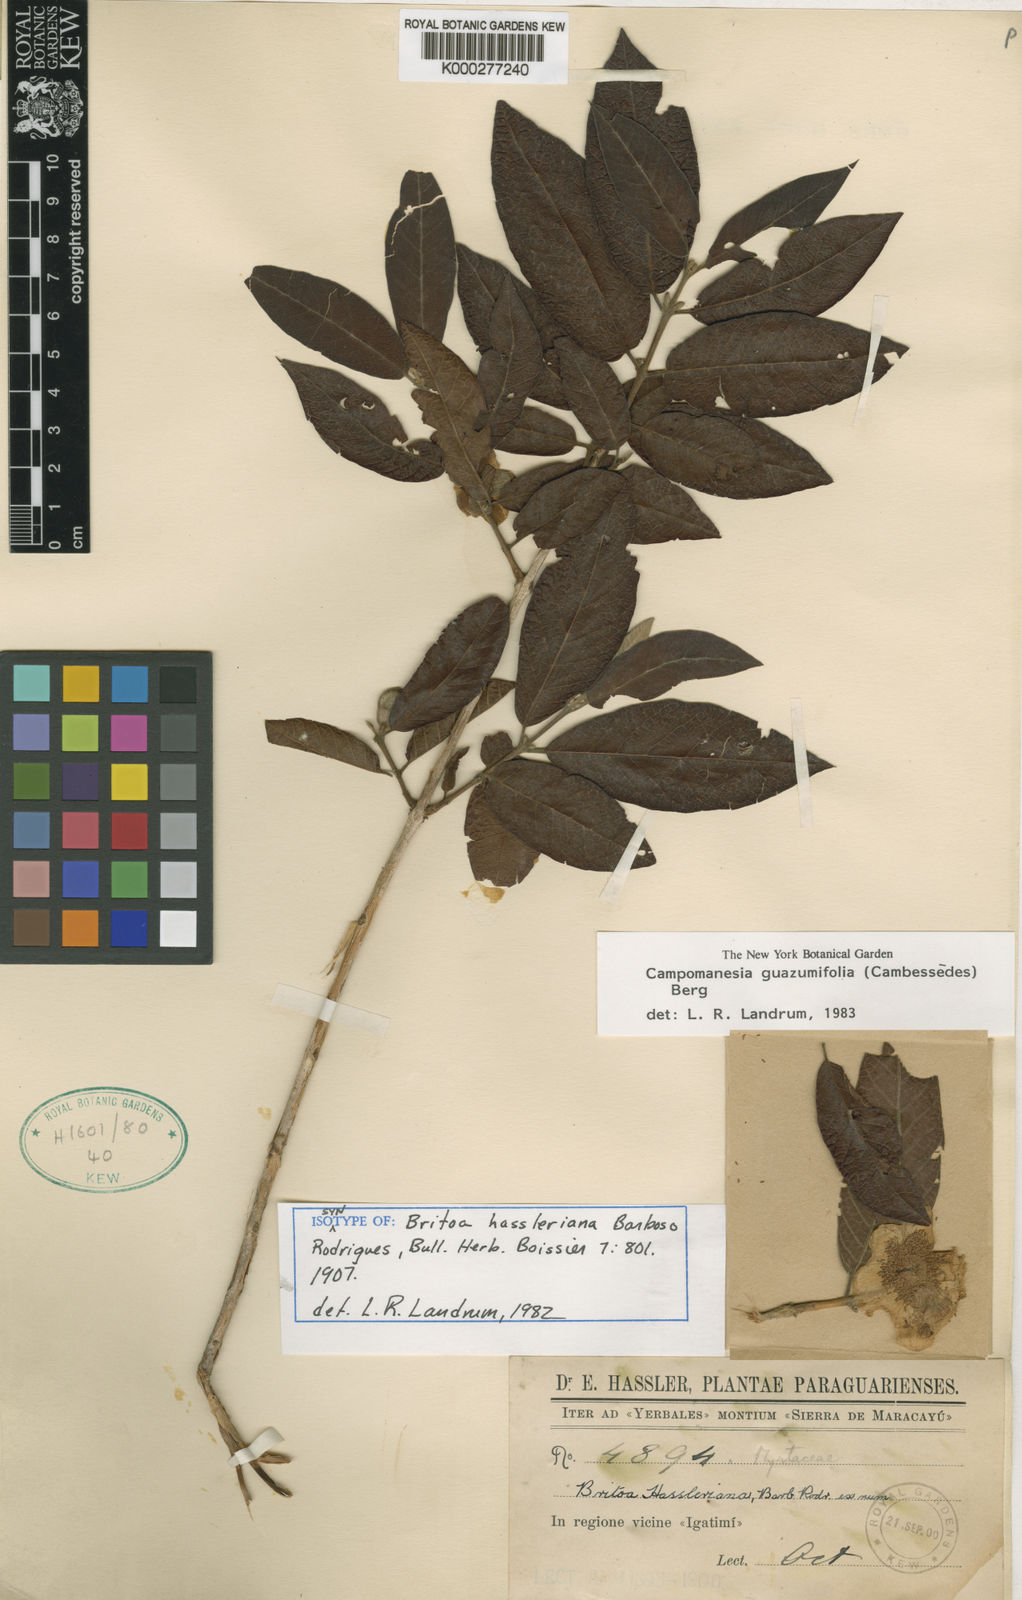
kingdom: Plantae
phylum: Tracheophyta
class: Magnoliopsida
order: Myrtales
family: Myrtaceae
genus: Campomanesia
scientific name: Campomanesia guazumifolia
